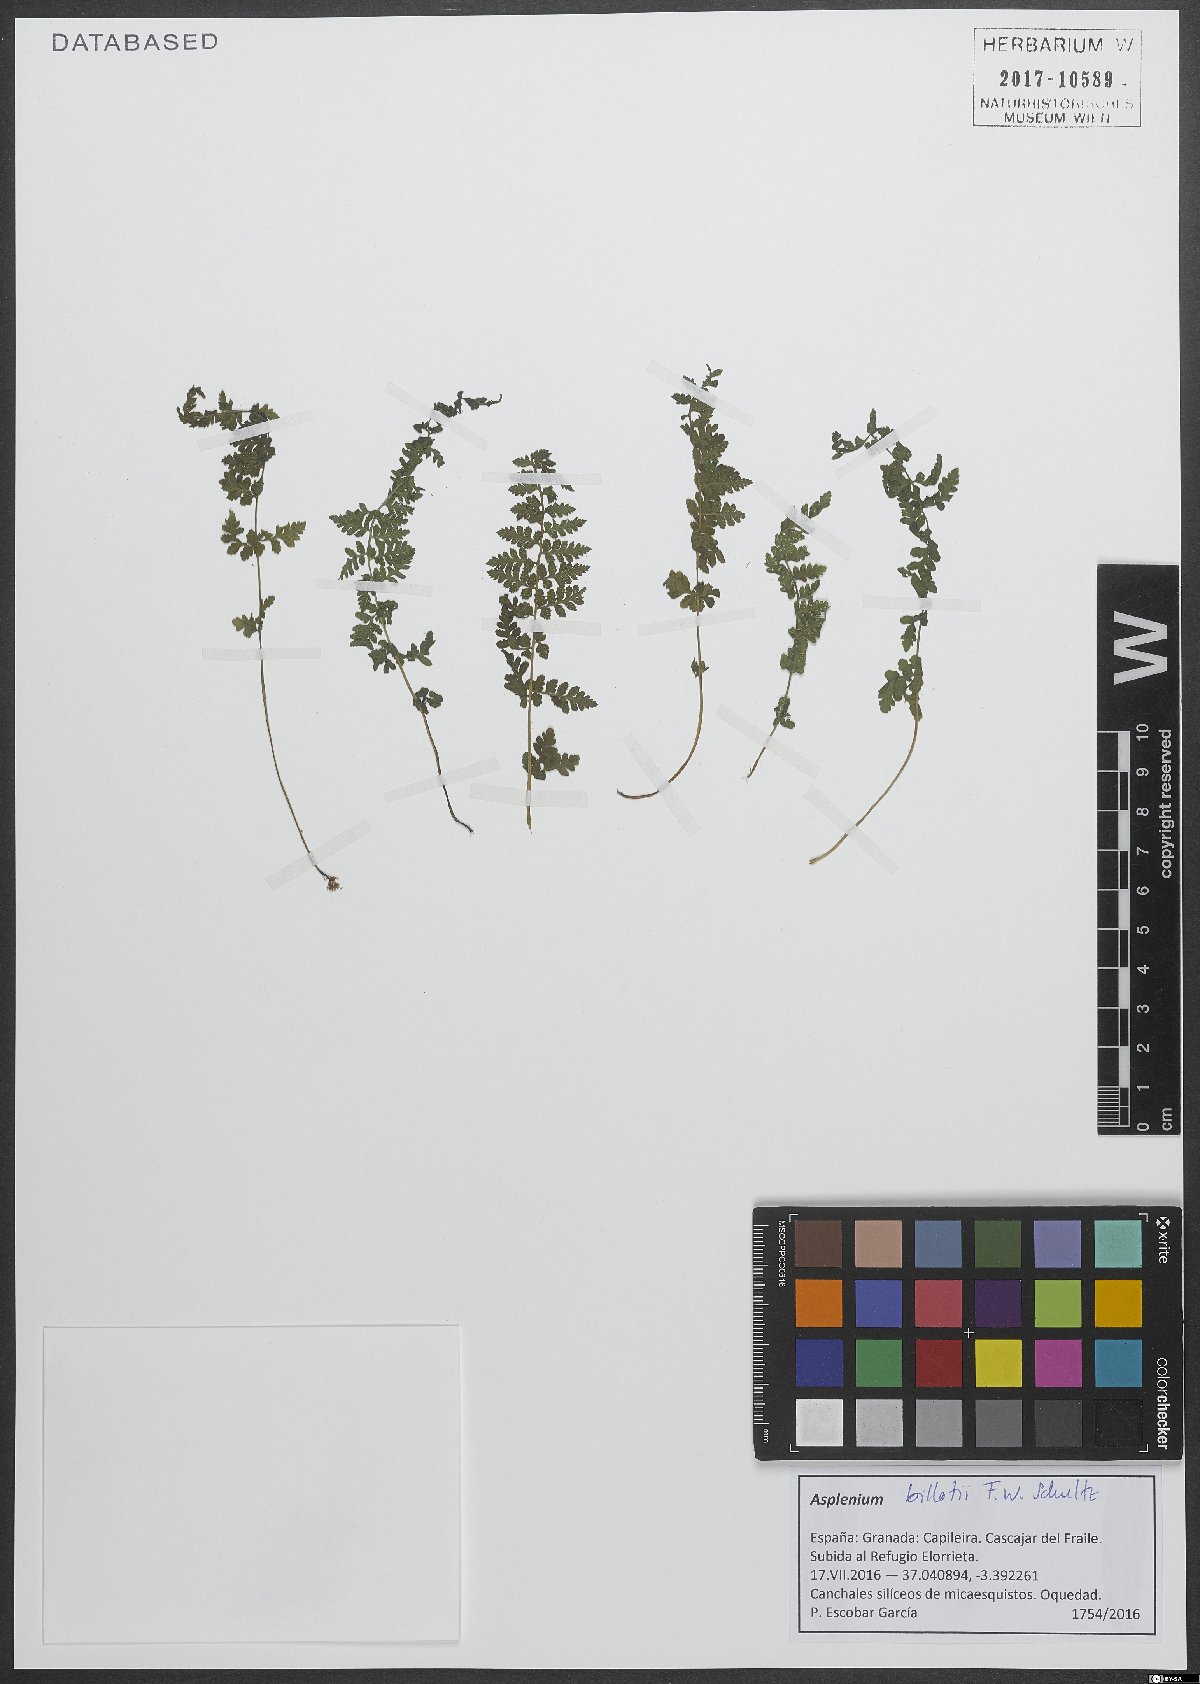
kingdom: Plantae
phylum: Tracheophyta
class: Polypodiopsida
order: Polypodiales
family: Aspleniaceae
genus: Asplenium
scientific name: Asplenium obovatum
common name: Lanceolate spleenwort
